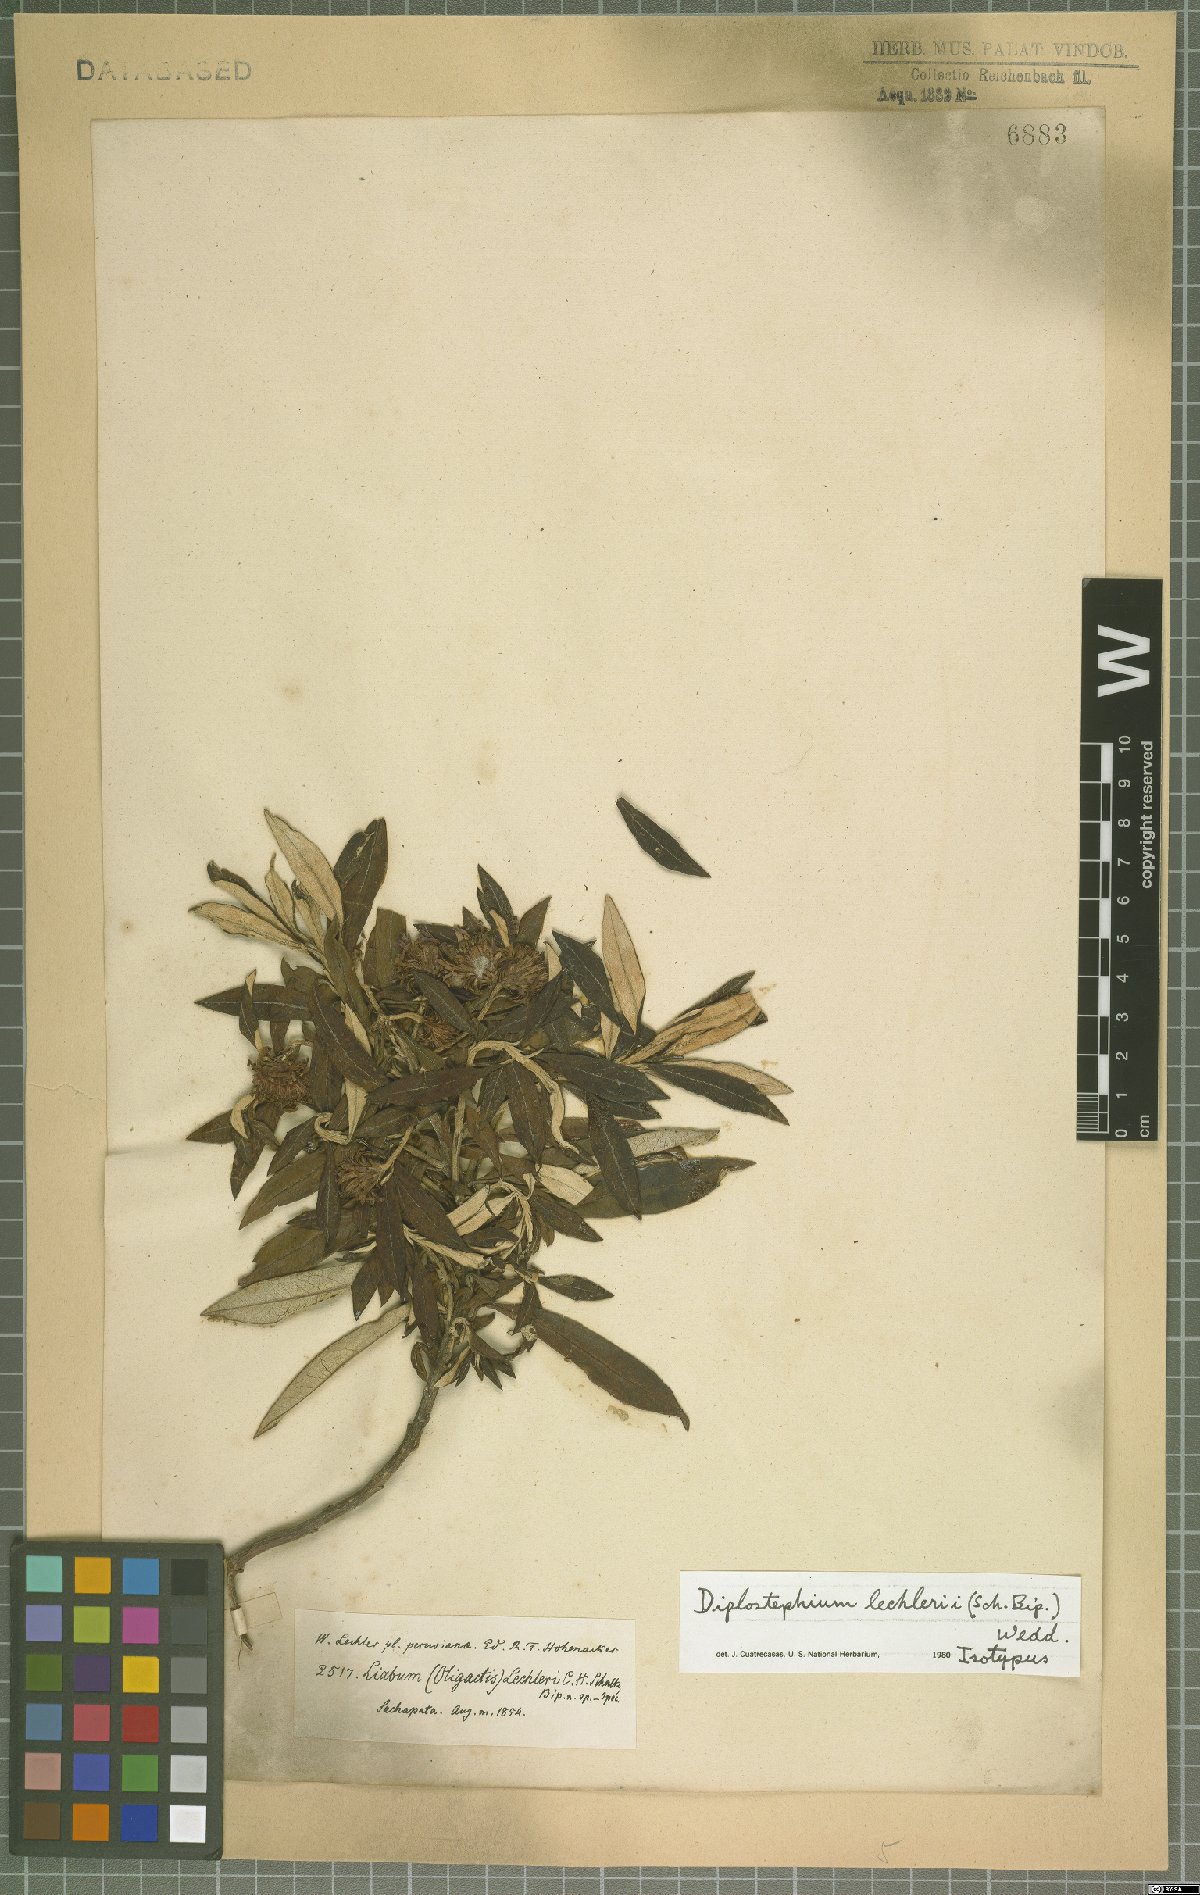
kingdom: Plantae
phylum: Tracheophyta
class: Magnoliopsida
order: Asterales
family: Asteraceae
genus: Diplostephium
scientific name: Diplostephium lechleri
